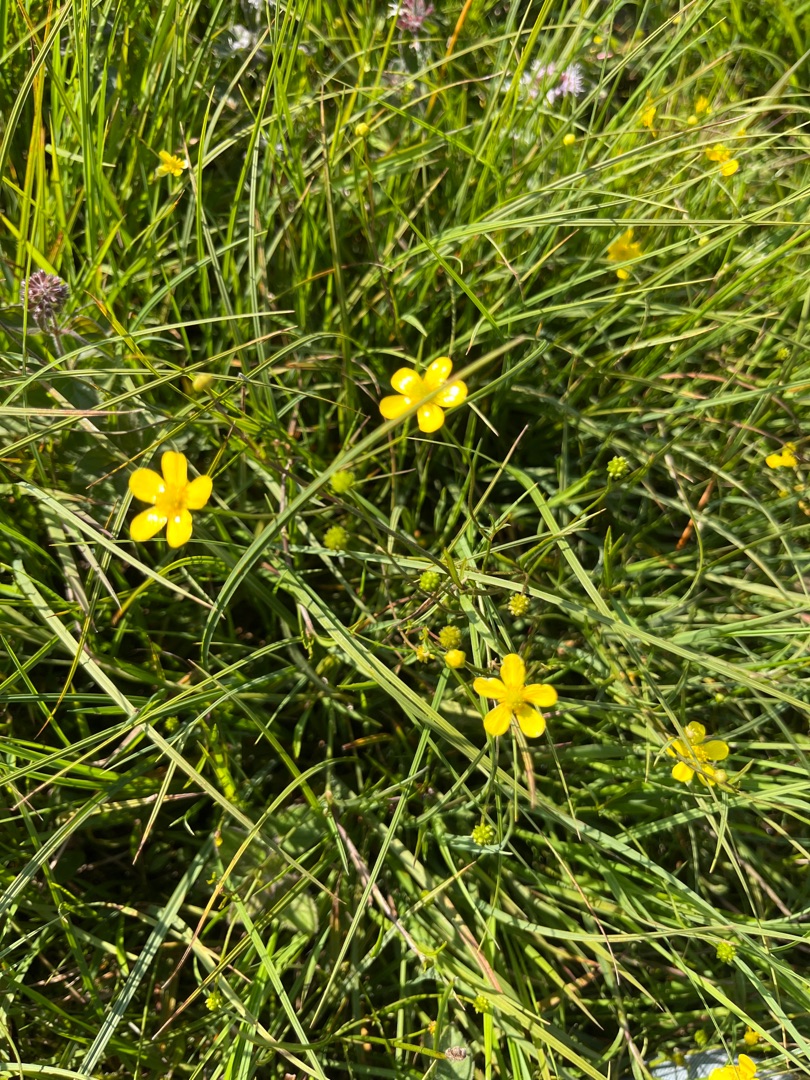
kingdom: Plantae
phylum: Tracheophyta
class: Magnoliopsida
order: Ranunculales
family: Ranunculaceae
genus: Ranunculus
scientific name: Ranunculus
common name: Ranunkelslægten
